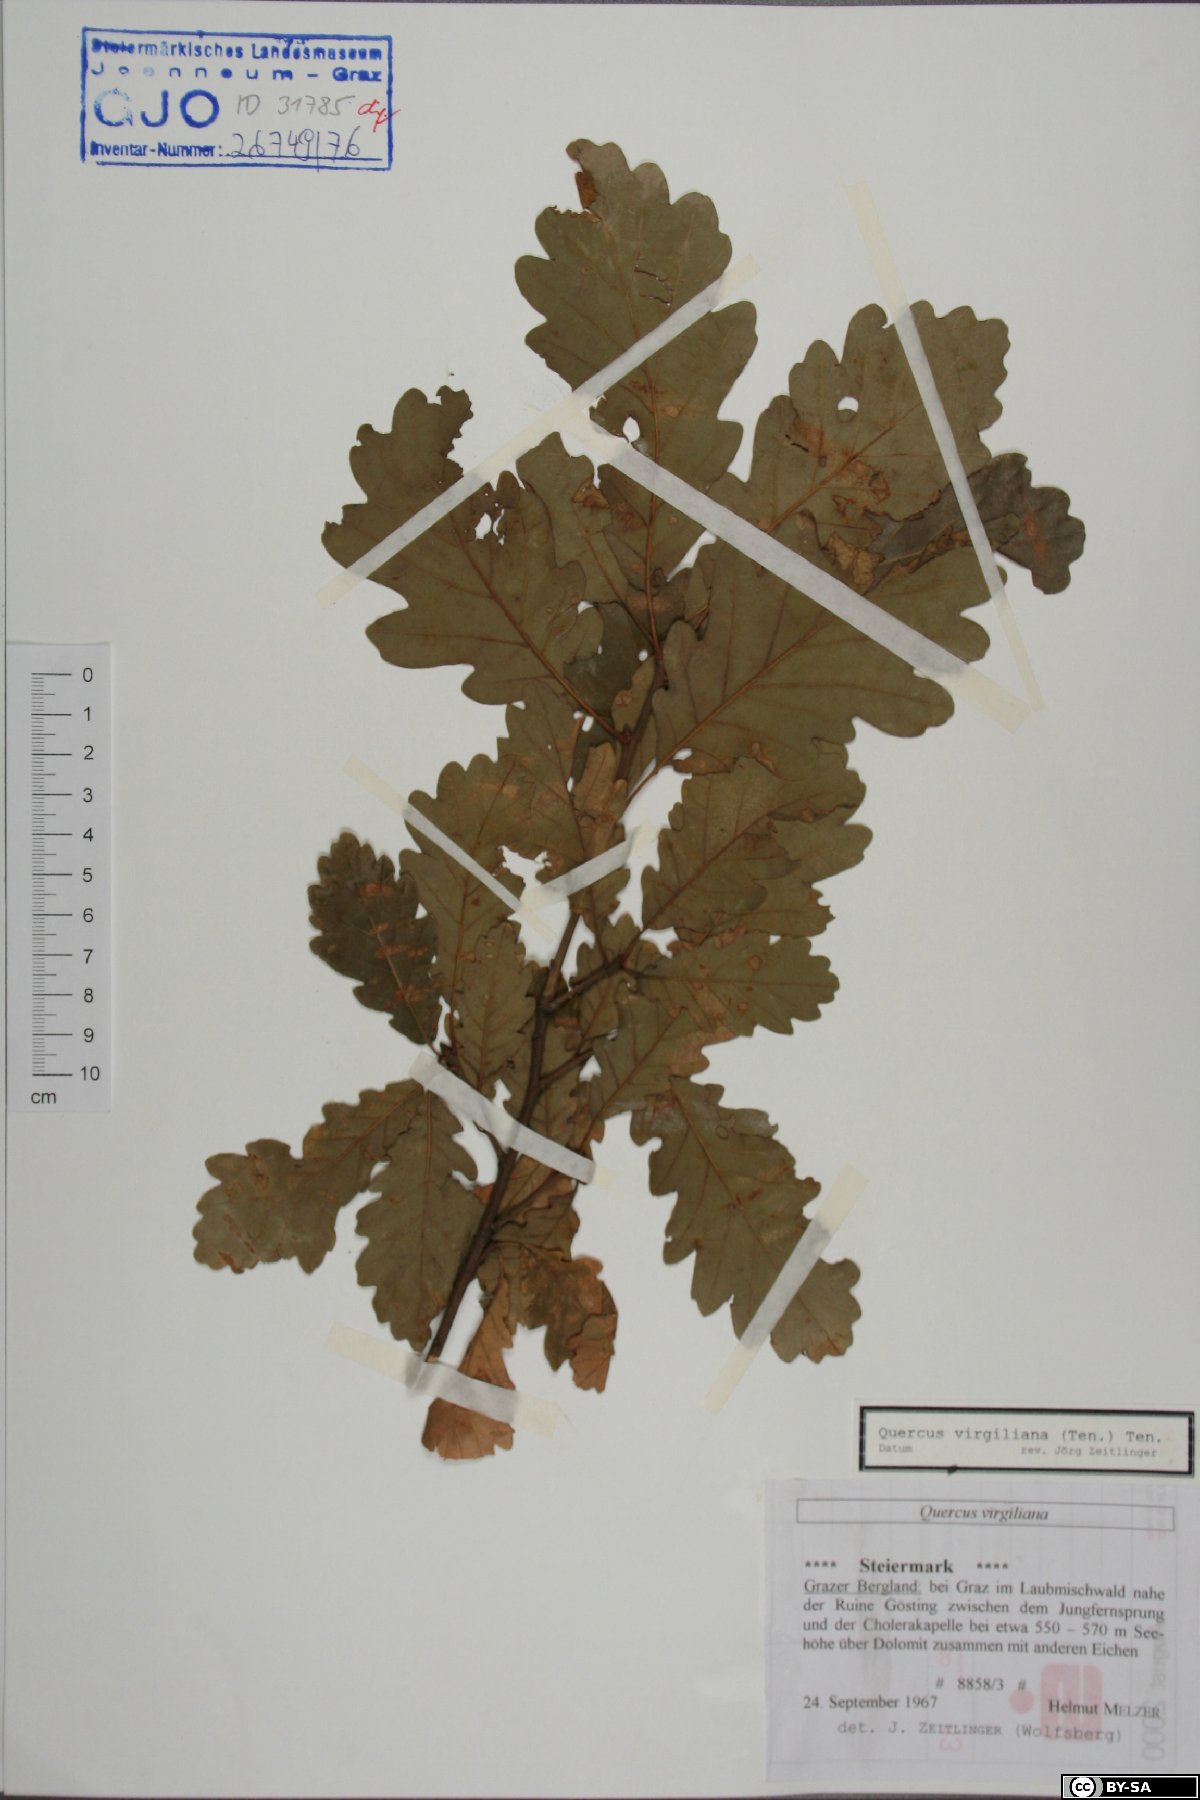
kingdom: Plantae
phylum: Tracheophyta
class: Magnoliopsida
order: Fagales
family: Fagaceae
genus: Quercus
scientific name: Quercus pubescens
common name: Downy oak
